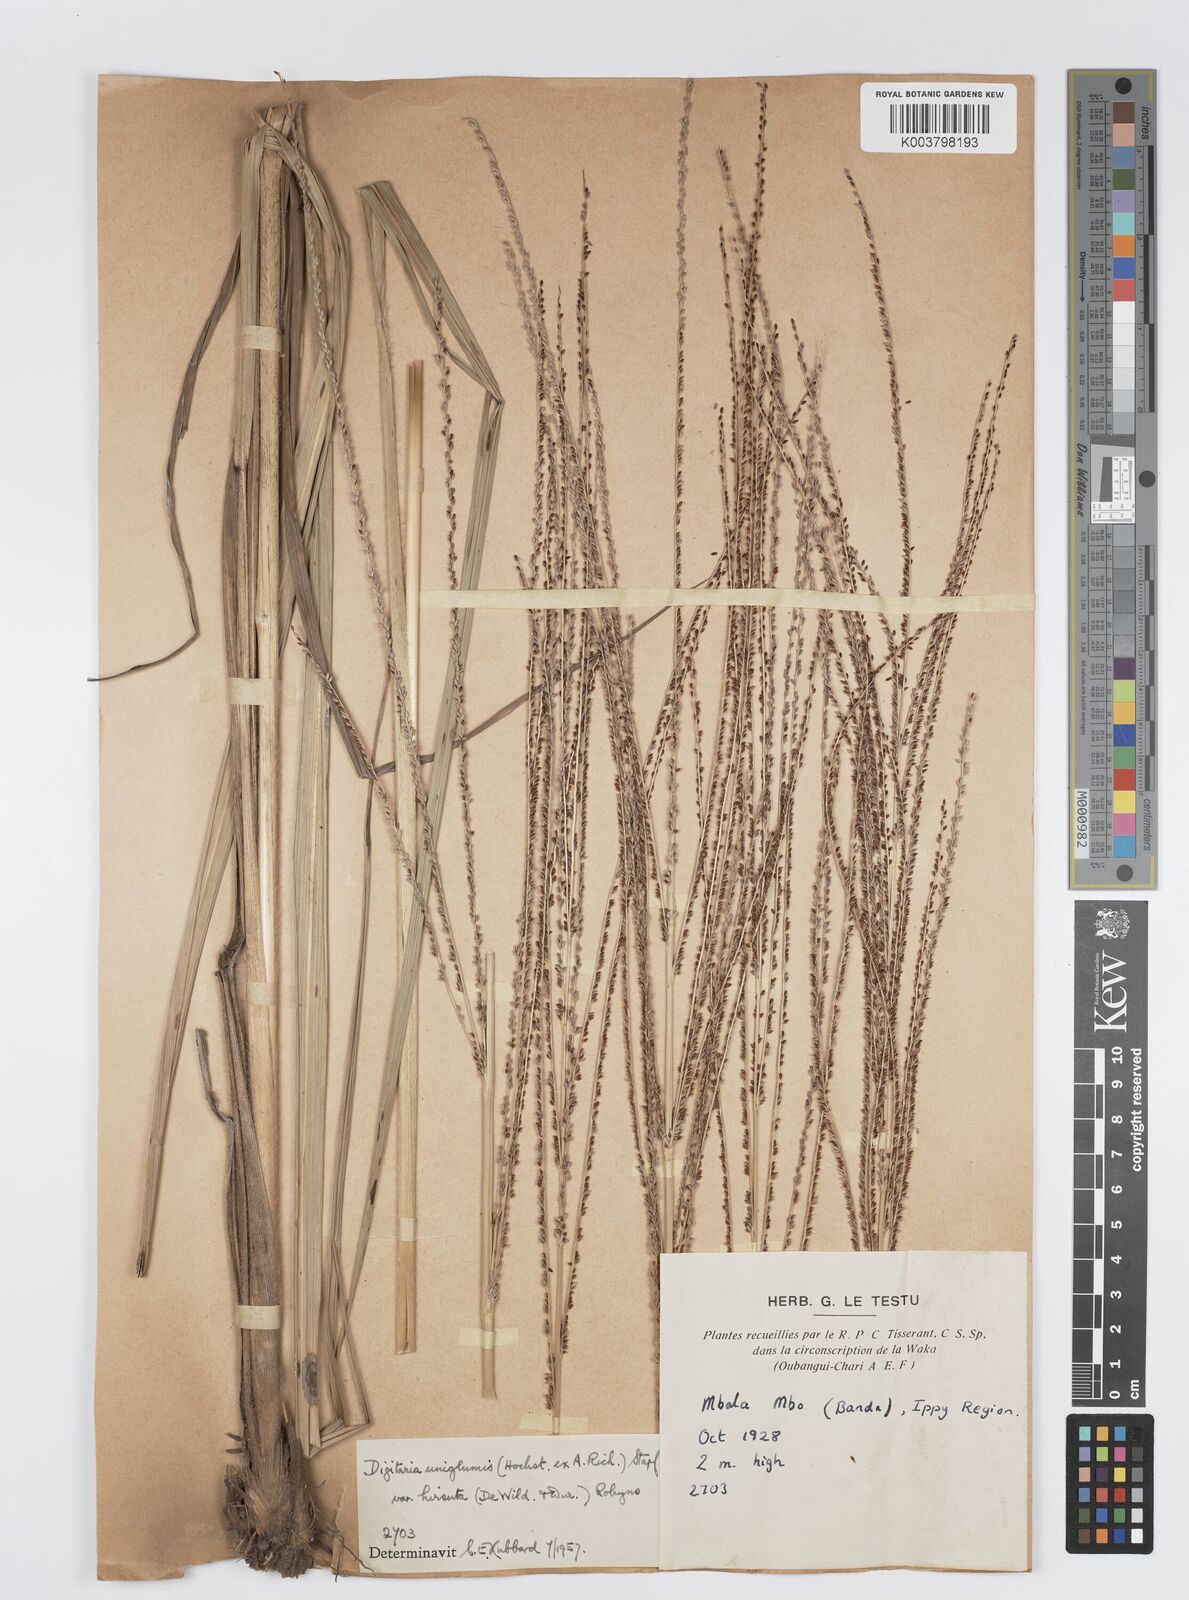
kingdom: Plantae
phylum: Tracheophyta
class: Liliopsida
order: Poales
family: Poaceae
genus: Digitaria
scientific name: Digitaria diagonalis
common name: Brown-seed finger grass
